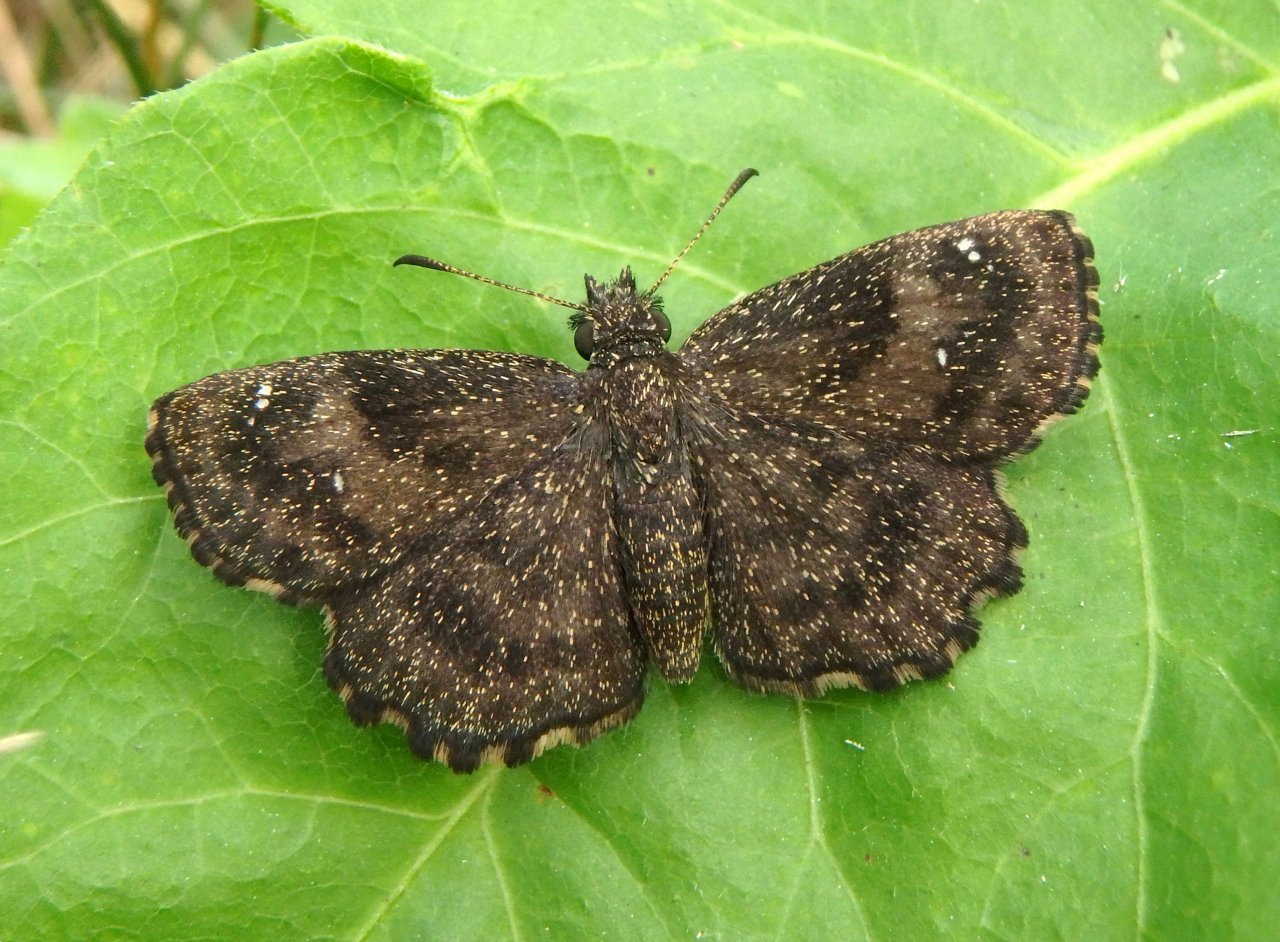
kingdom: Animalia
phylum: Arthropoda
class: Insecta
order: Lepidoptera
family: Hesperiidae
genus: Staphylus
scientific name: Staphylus mazans
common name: Hayhurst's Scallopwing
